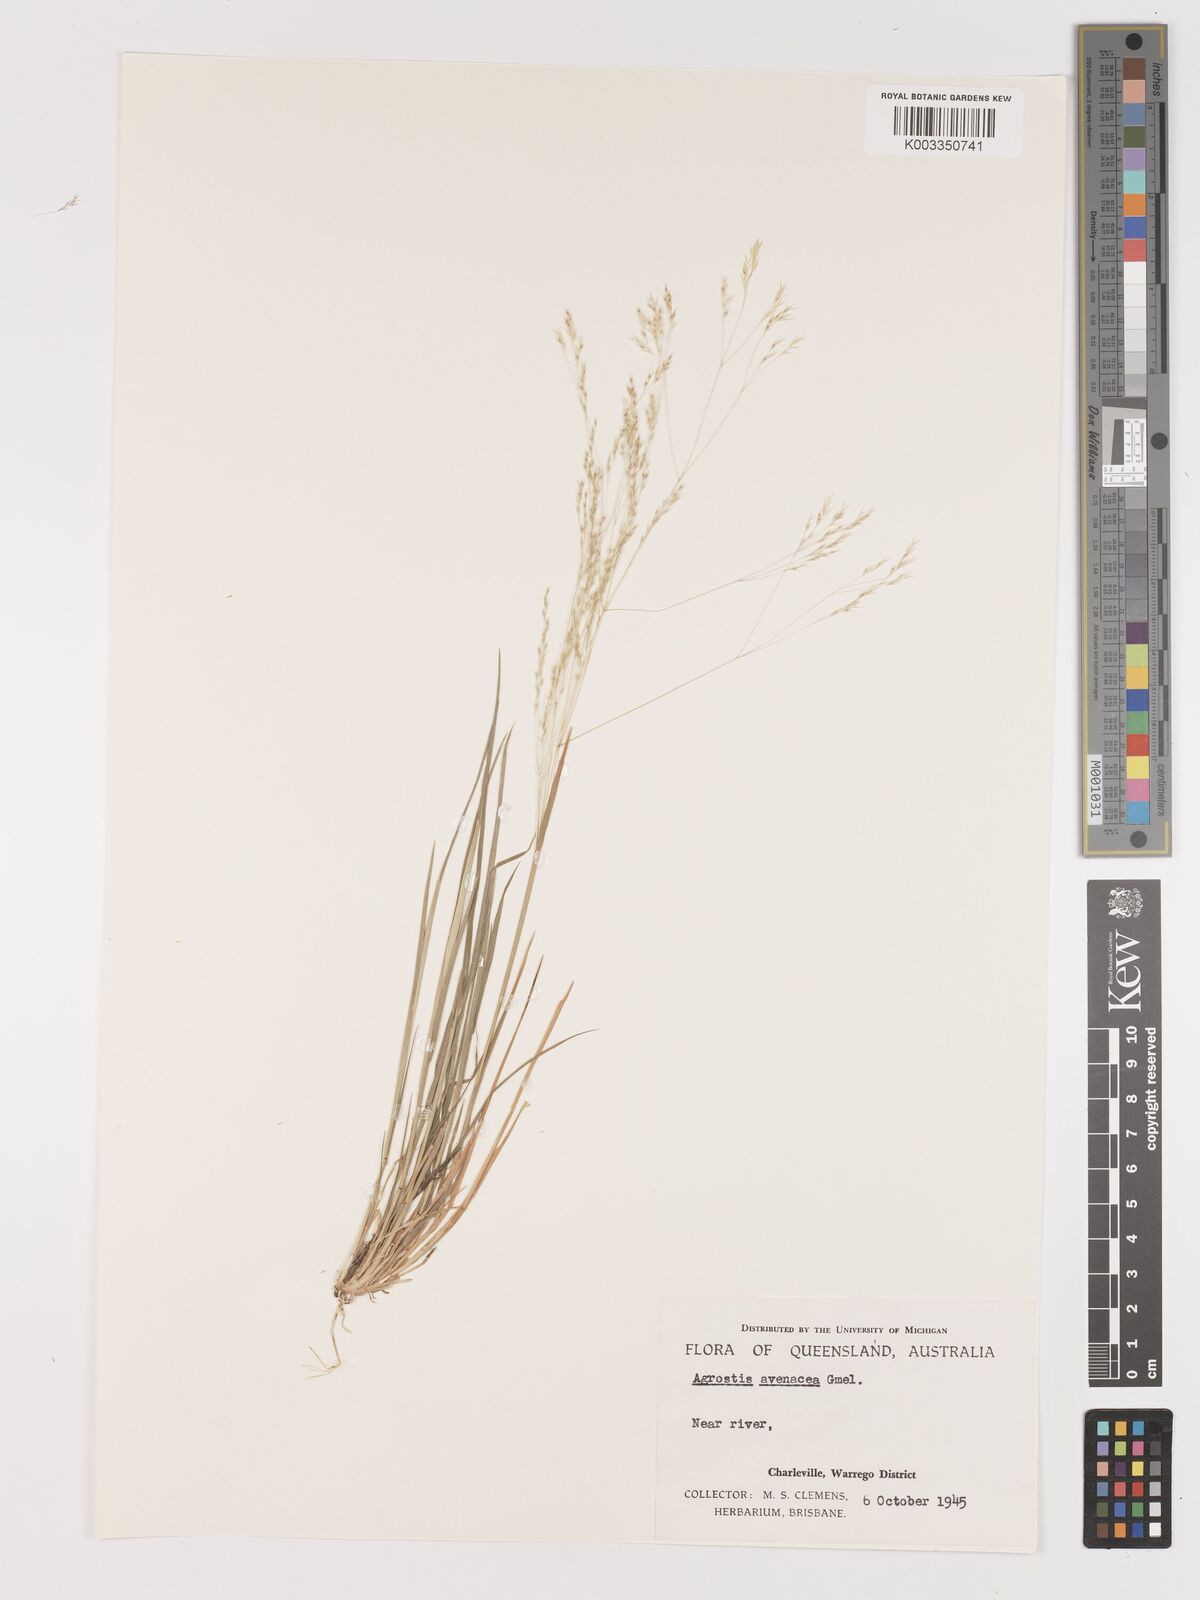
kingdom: Plantae
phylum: Tracheophyta
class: Liliopsida
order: Poales
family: Poaceae
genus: Lachnagrostis
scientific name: Lachnagrostis filiformis
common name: Bentgrass
